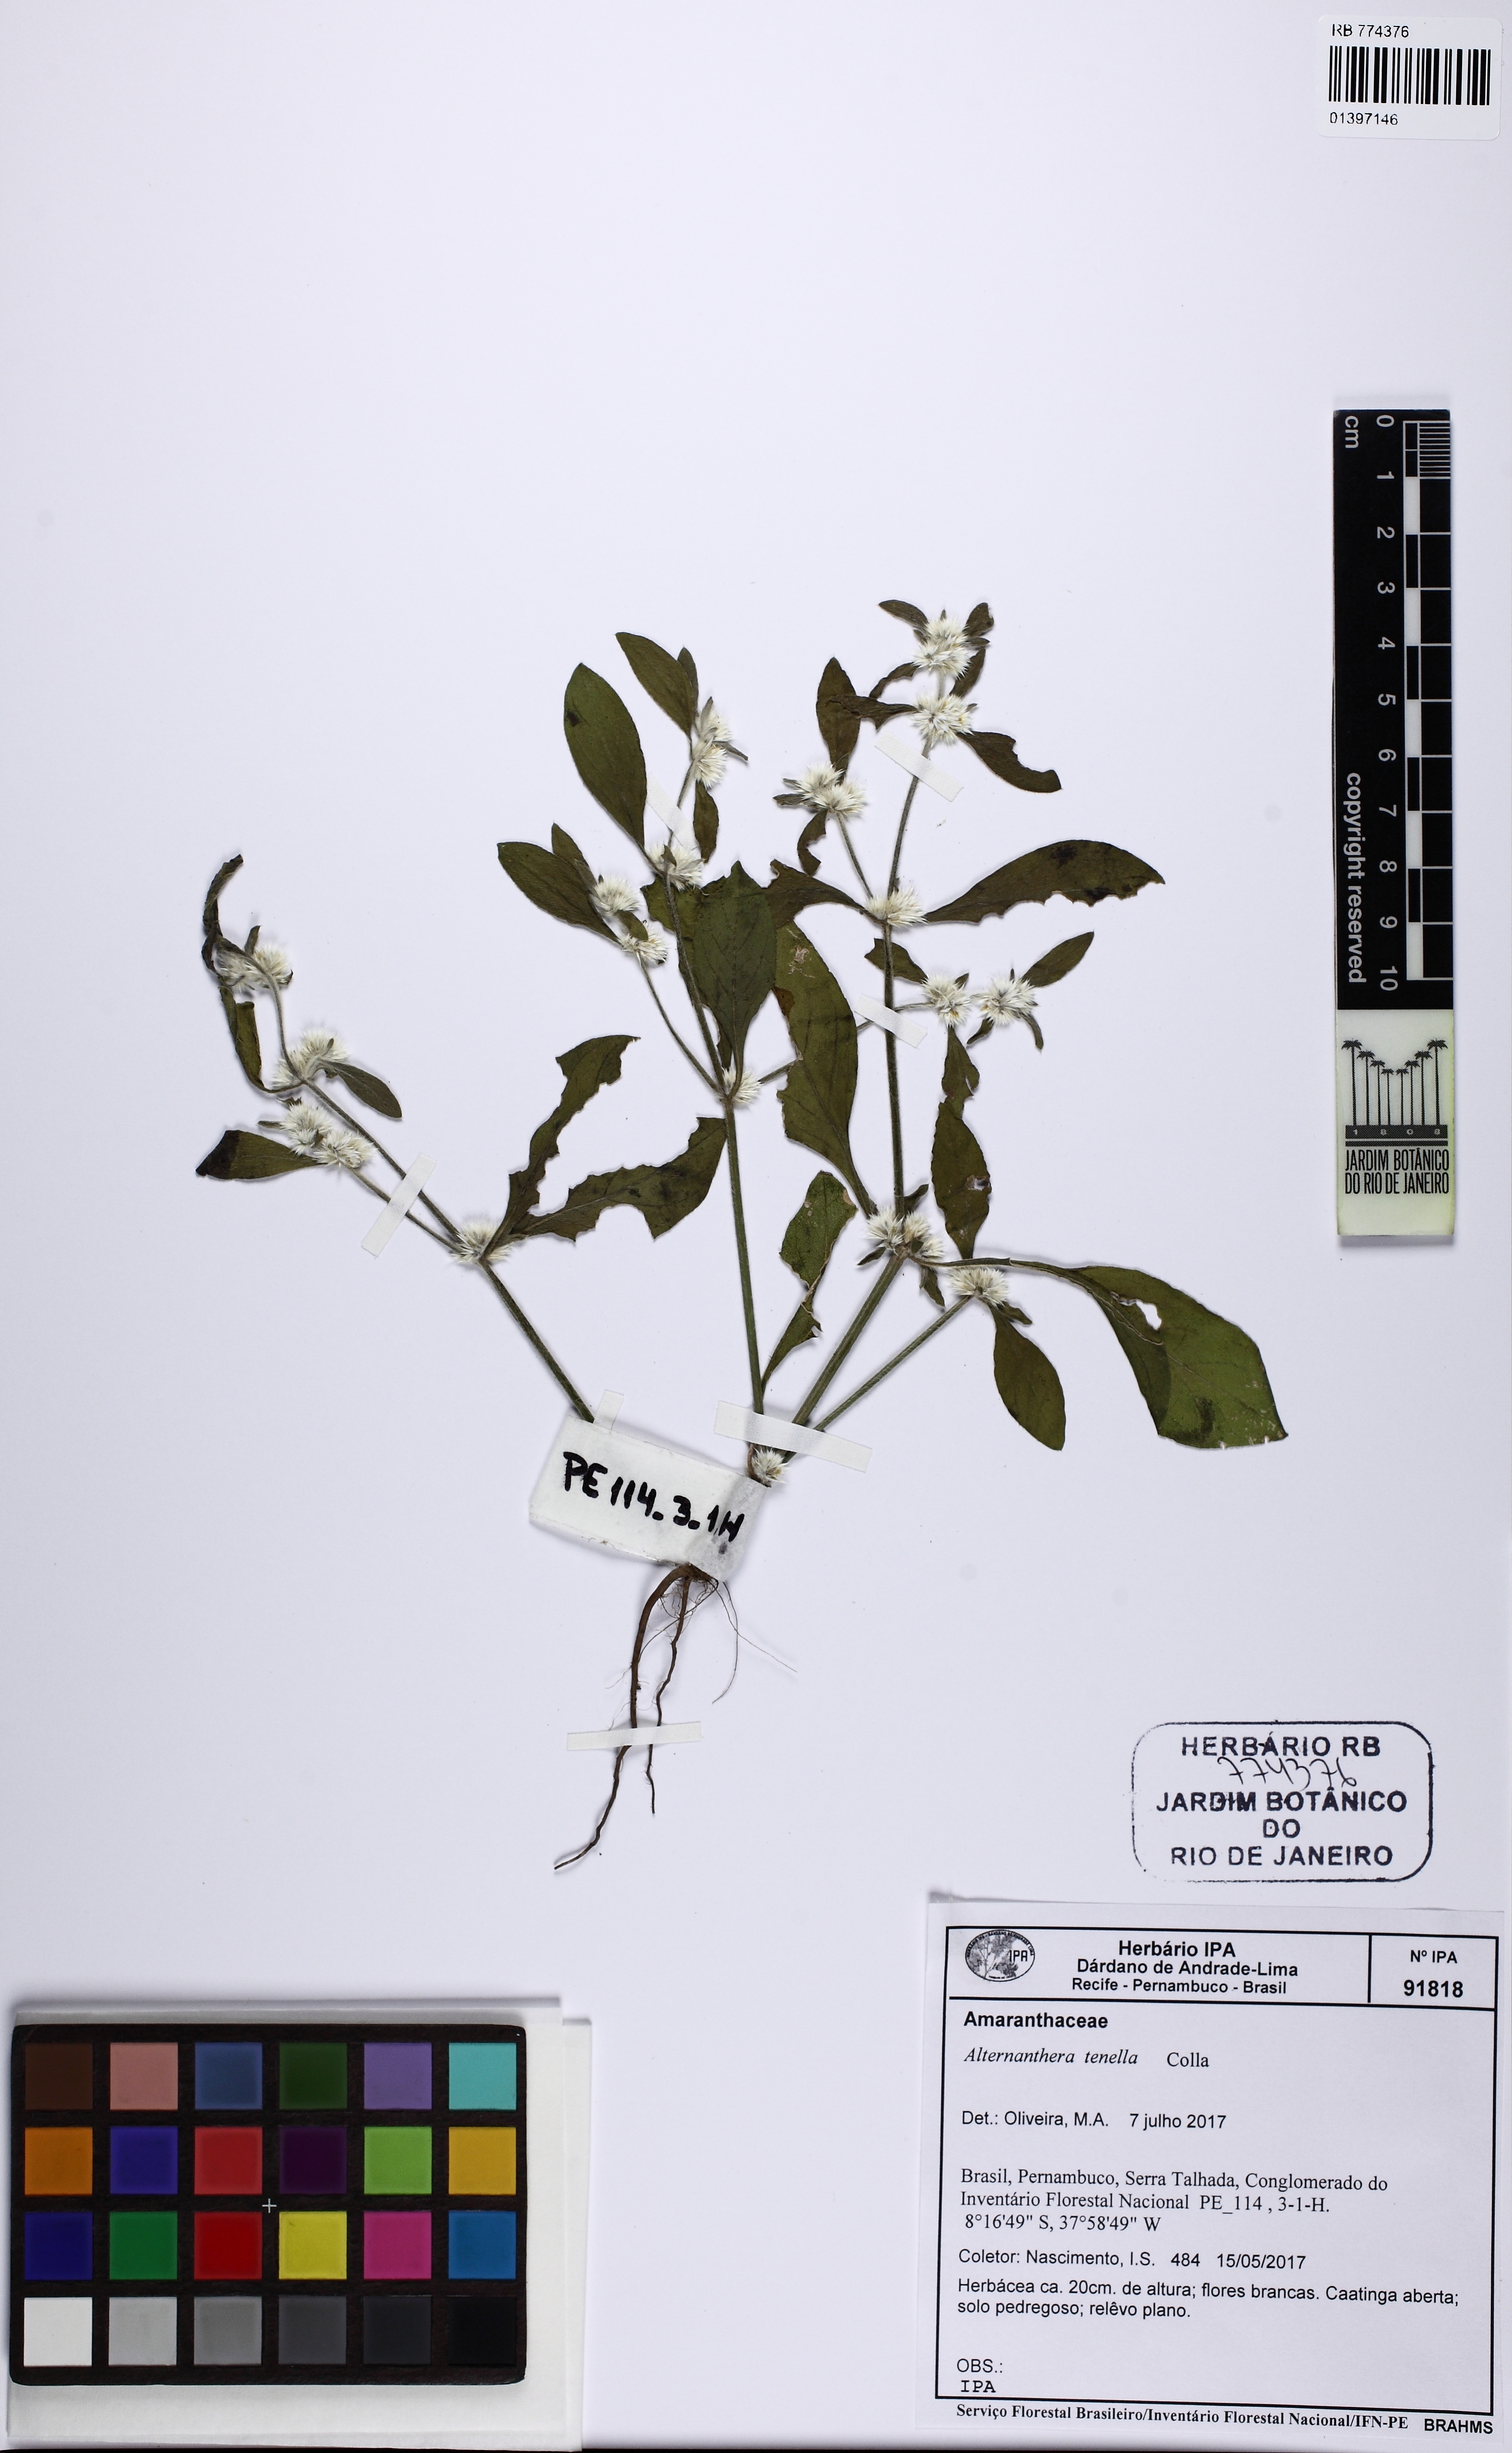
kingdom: Plantae
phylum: Tracheophyta
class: Magnoliopsida
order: Caryophyllales
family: Amaranthaceae
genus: Alternanthera
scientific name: Alternanthera ficoidea
